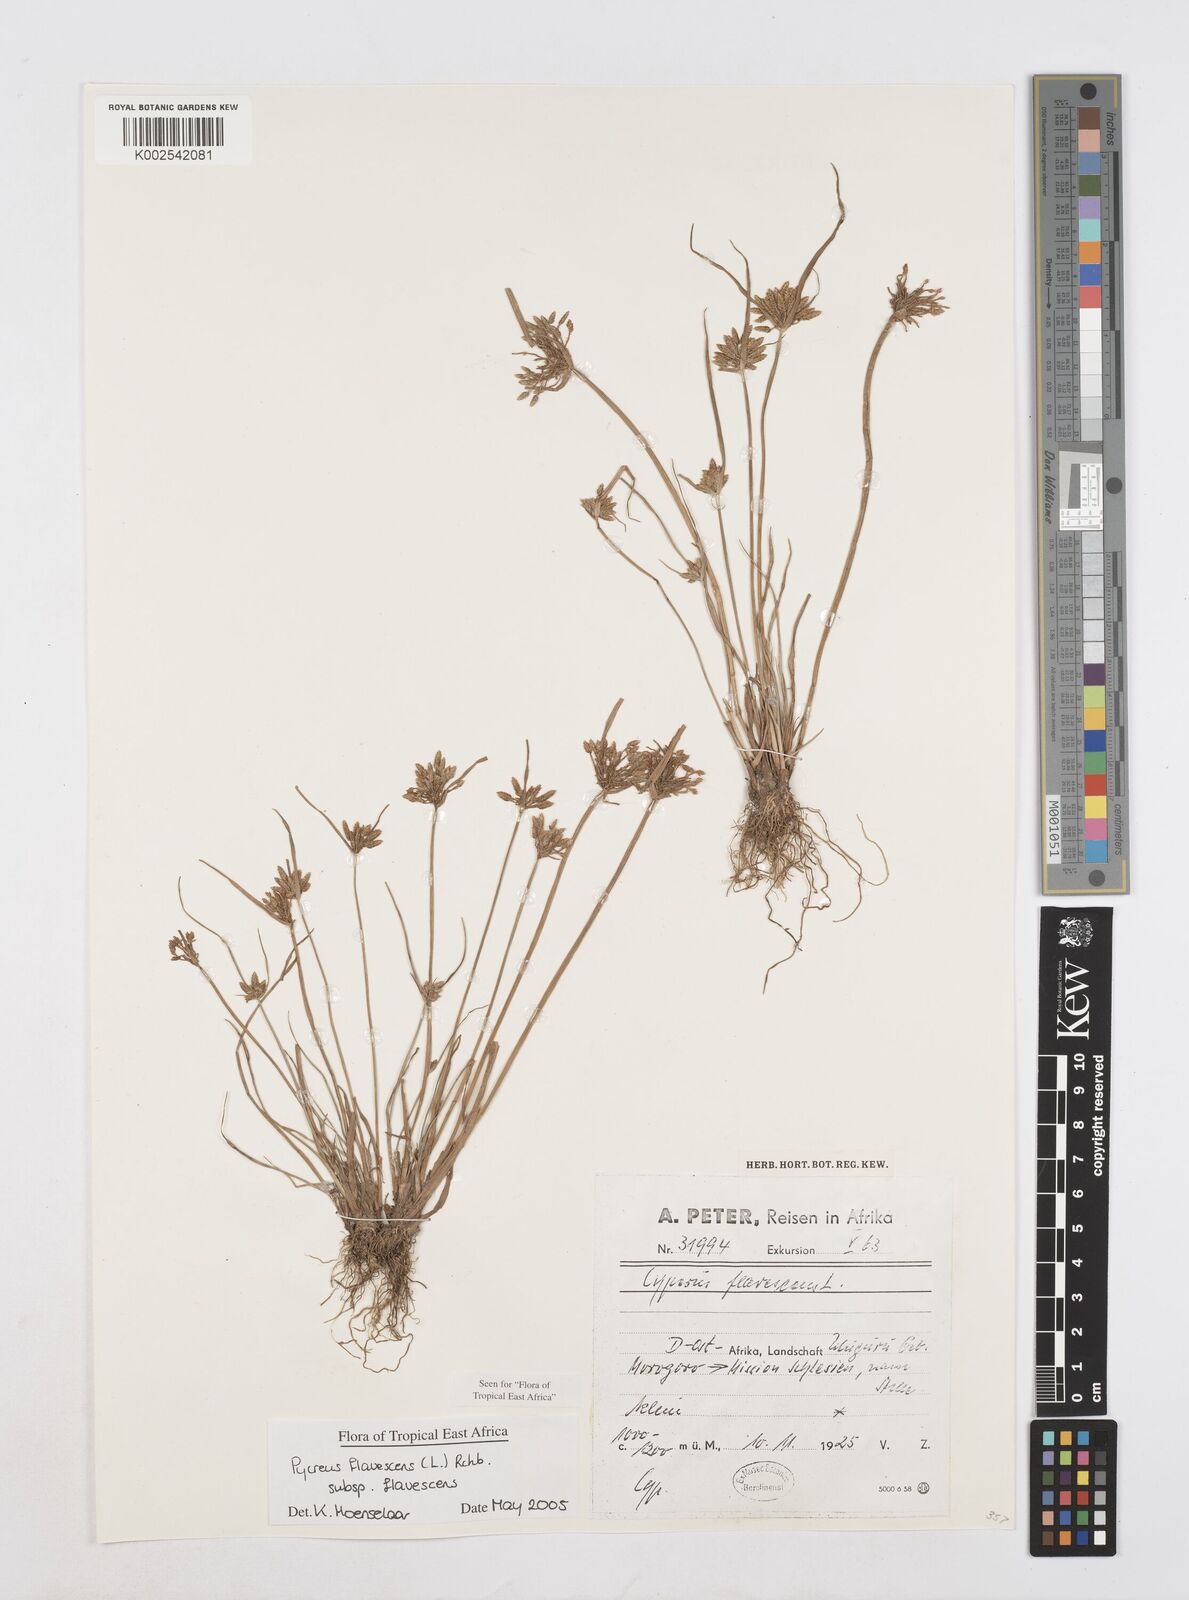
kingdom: Plantae
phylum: Tracheophyta
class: Liliopsida
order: Poales
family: Cyperaceae
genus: Cyperus
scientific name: Cyperus flavescens
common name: Yellow galingale
